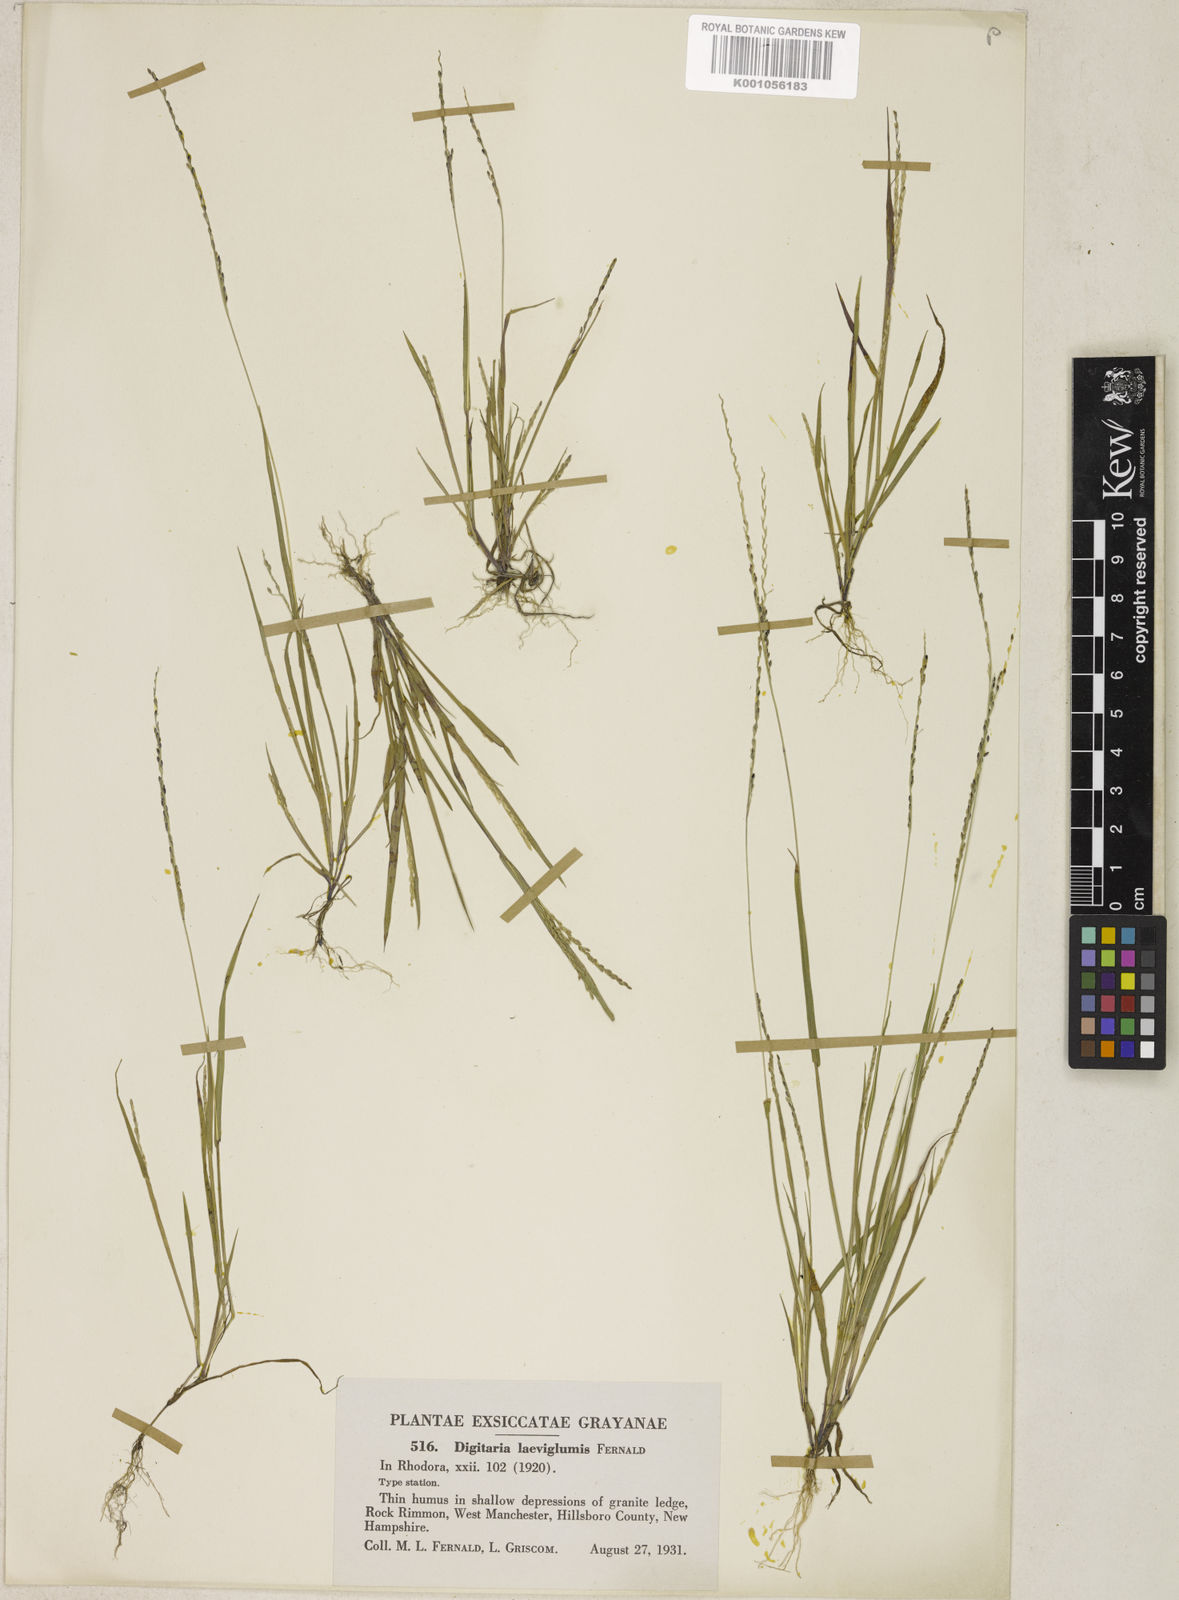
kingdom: Plantae
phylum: Tracheophyta
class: Liliopsida
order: Poales
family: Poaceae
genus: Digitaria
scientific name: Digitaria filiformis
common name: Slender crabgrass
